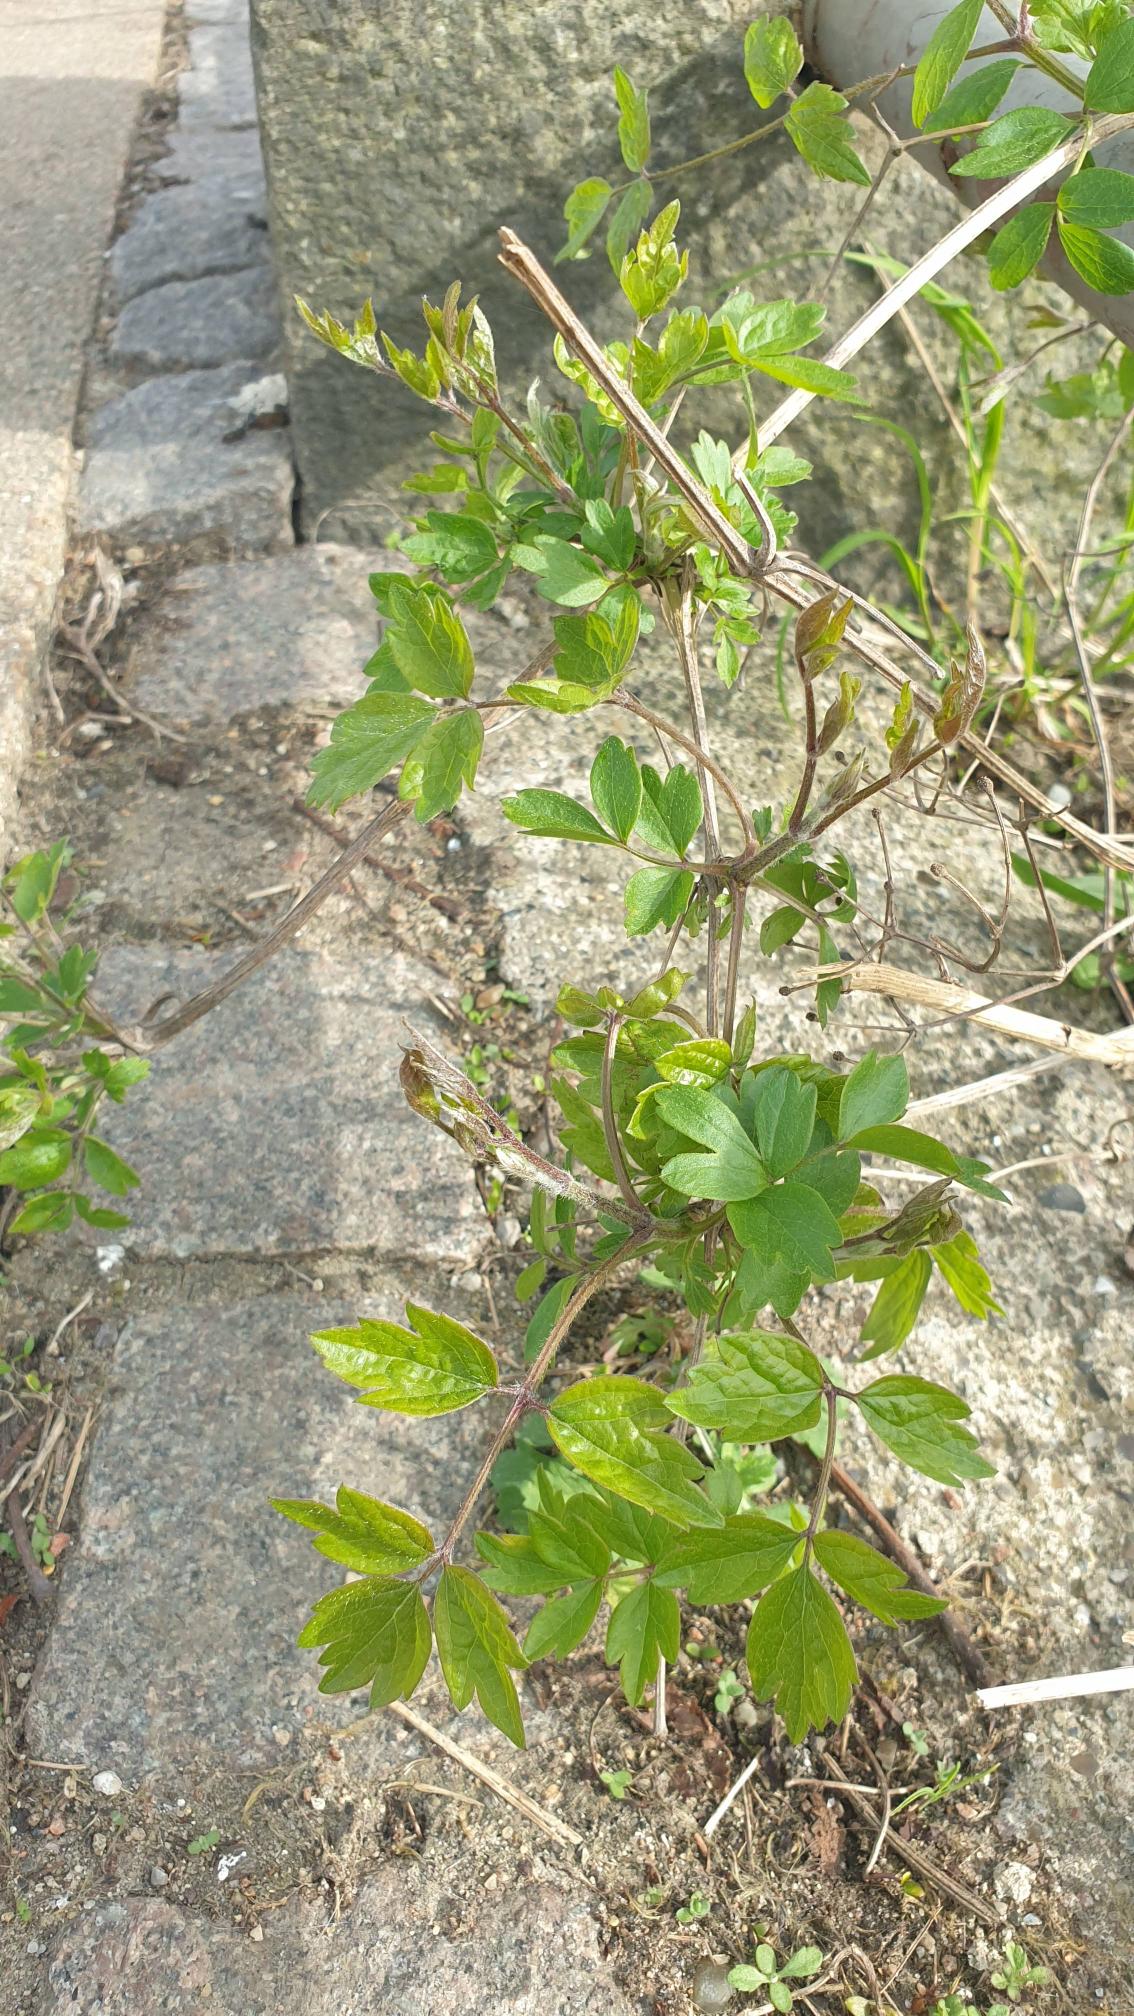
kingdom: Plantae
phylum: Tracheophyta
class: Magnoliopsida
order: Ranunculales
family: Ranunculaceae
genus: Clematis
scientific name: Clematis vitalba
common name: Skovranke
